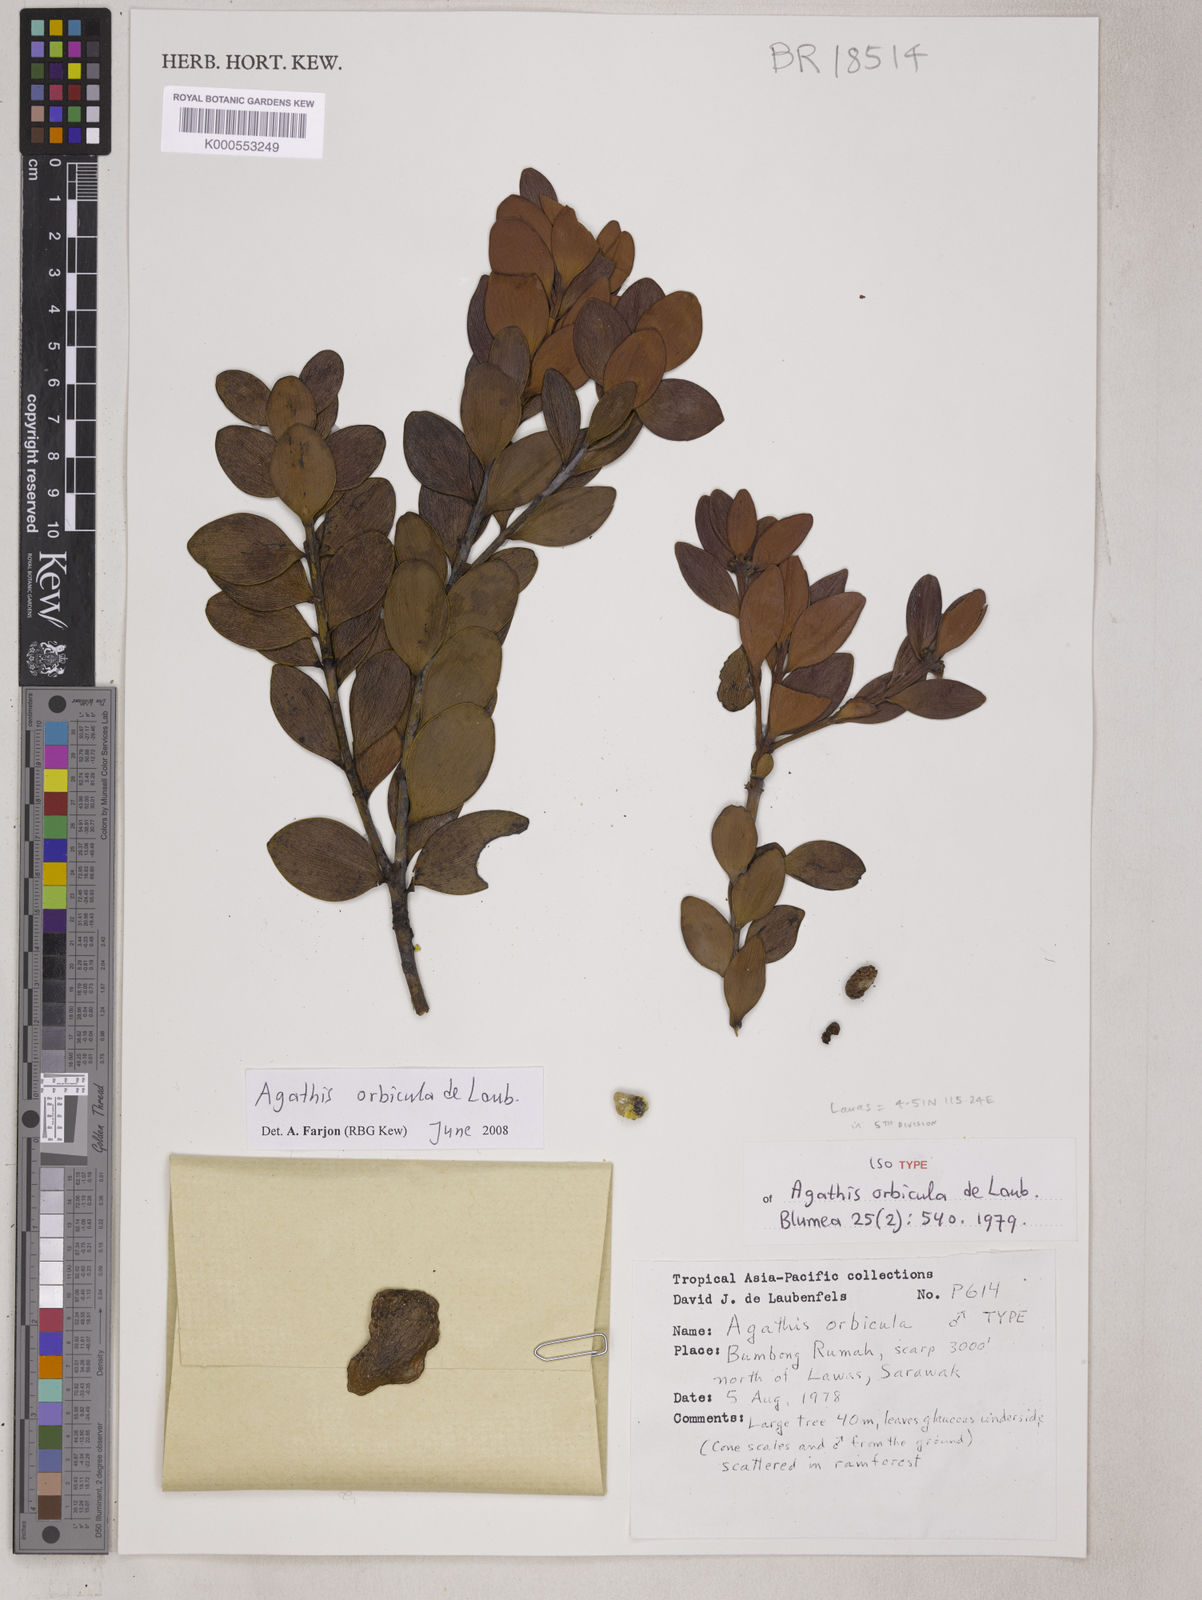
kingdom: Plantae
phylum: Tracheophyta
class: Pinopsida
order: Pinales
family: Araucariaceae
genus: Agathis
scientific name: Agathis orbicula
